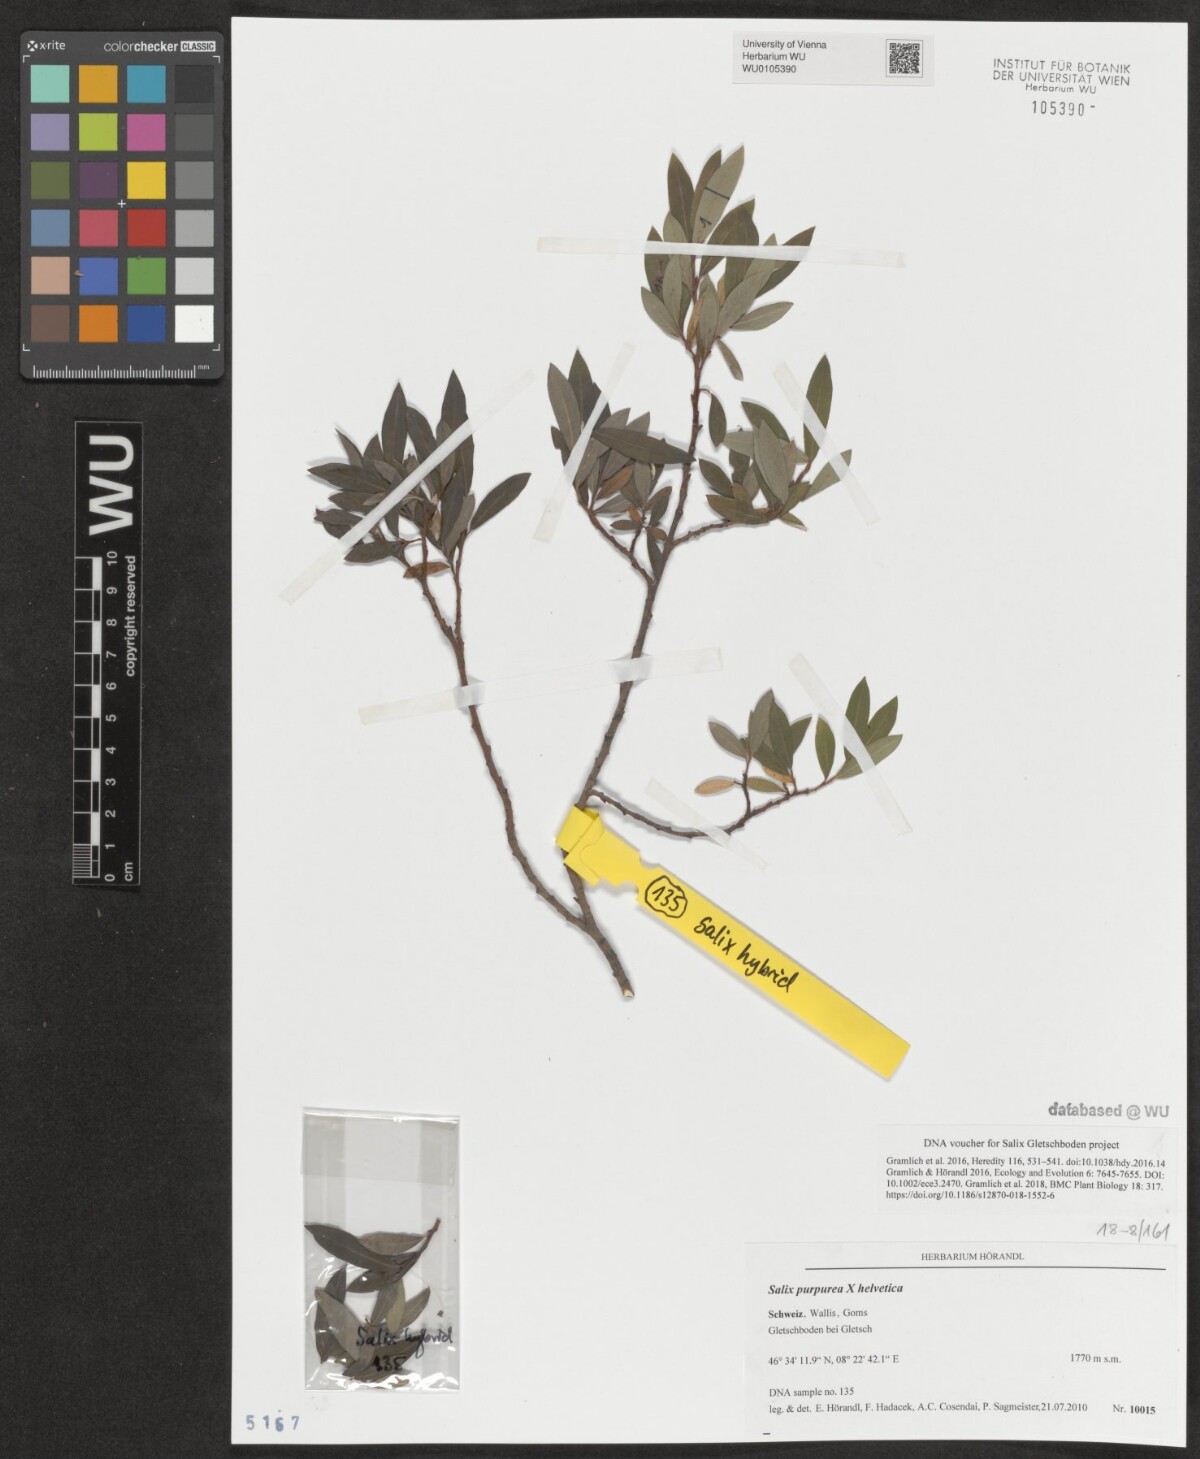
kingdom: Plantae
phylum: Tracheophyta
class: Magnoliopsida
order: Malpighiales
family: Salicaceae
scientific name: Salicaceae
